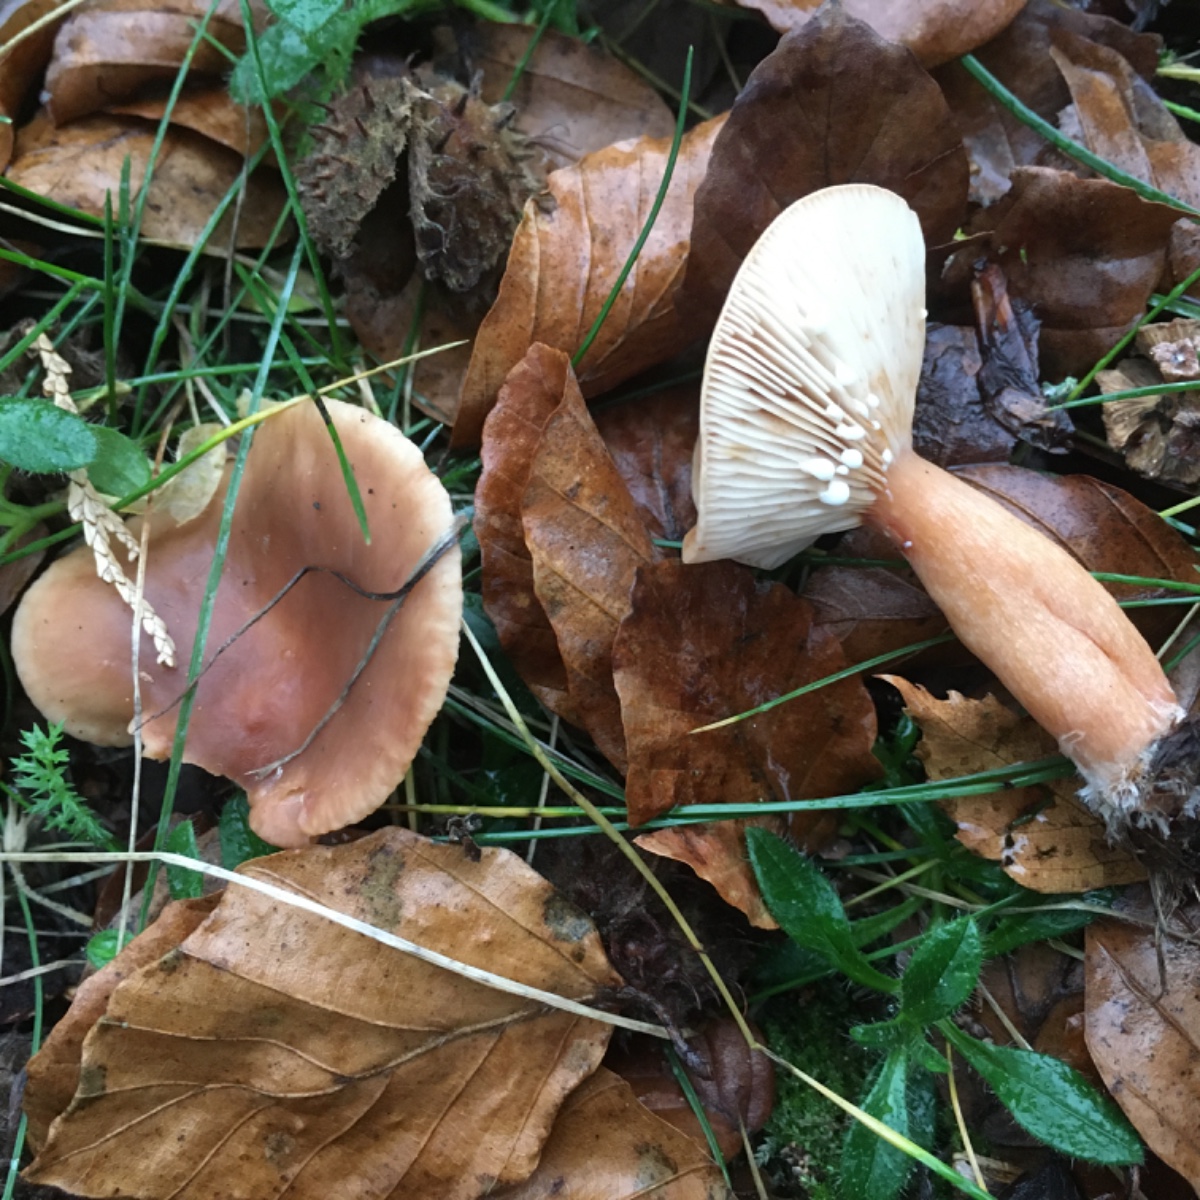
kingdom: Fungi
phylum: Basidiomycota
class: Agaricomycetes
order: Russulales
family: Russulaceae
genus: Lactarius
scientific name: Lactarius subdulcis
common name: sødlig mælkehat
